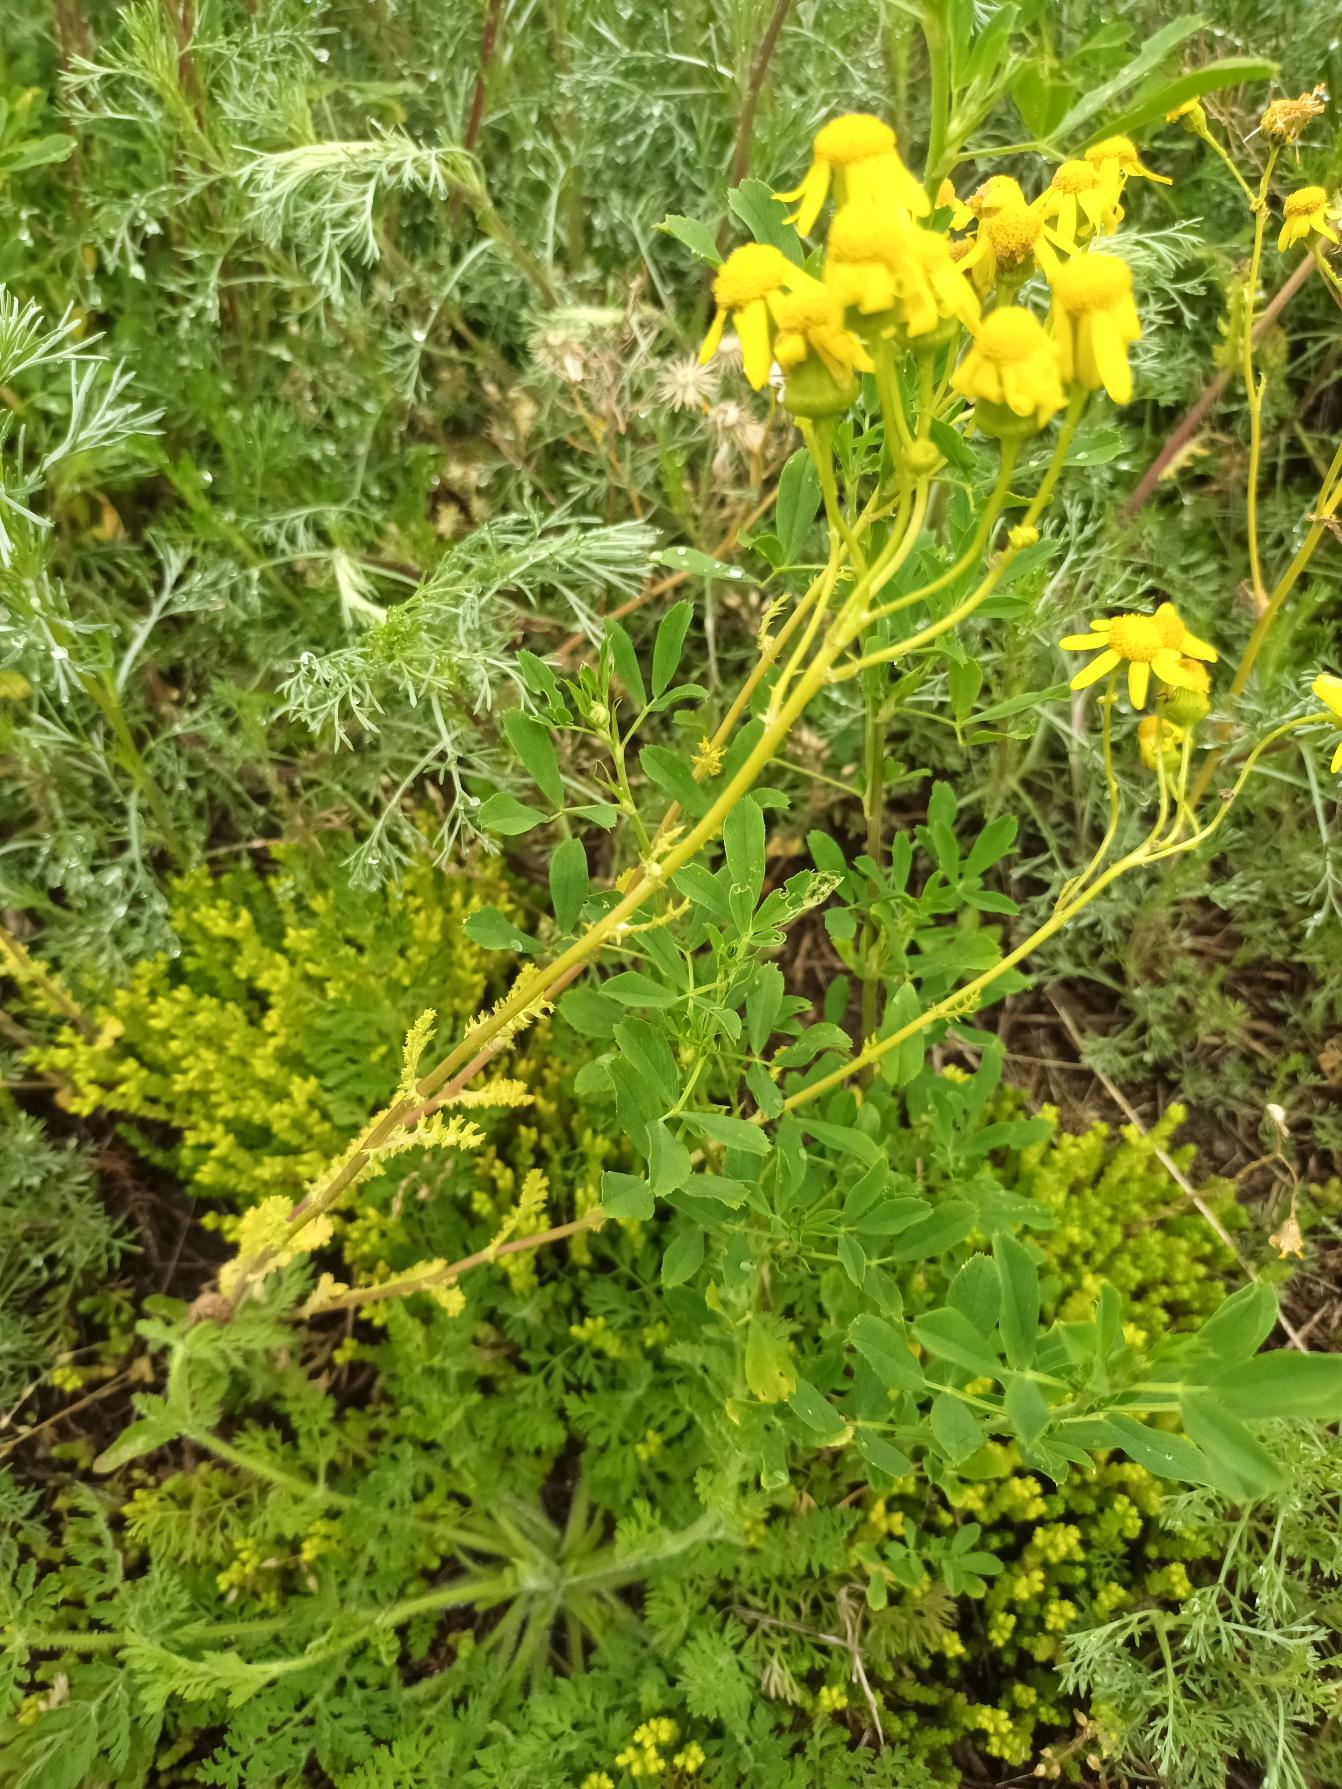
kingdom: Plantae
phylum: Tracheophyta
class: Magnoliopsida
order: Asterales
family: Asteraceae
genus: Senecio
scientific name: Senecio leucanthemifolius
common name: Vår-brandbæger
